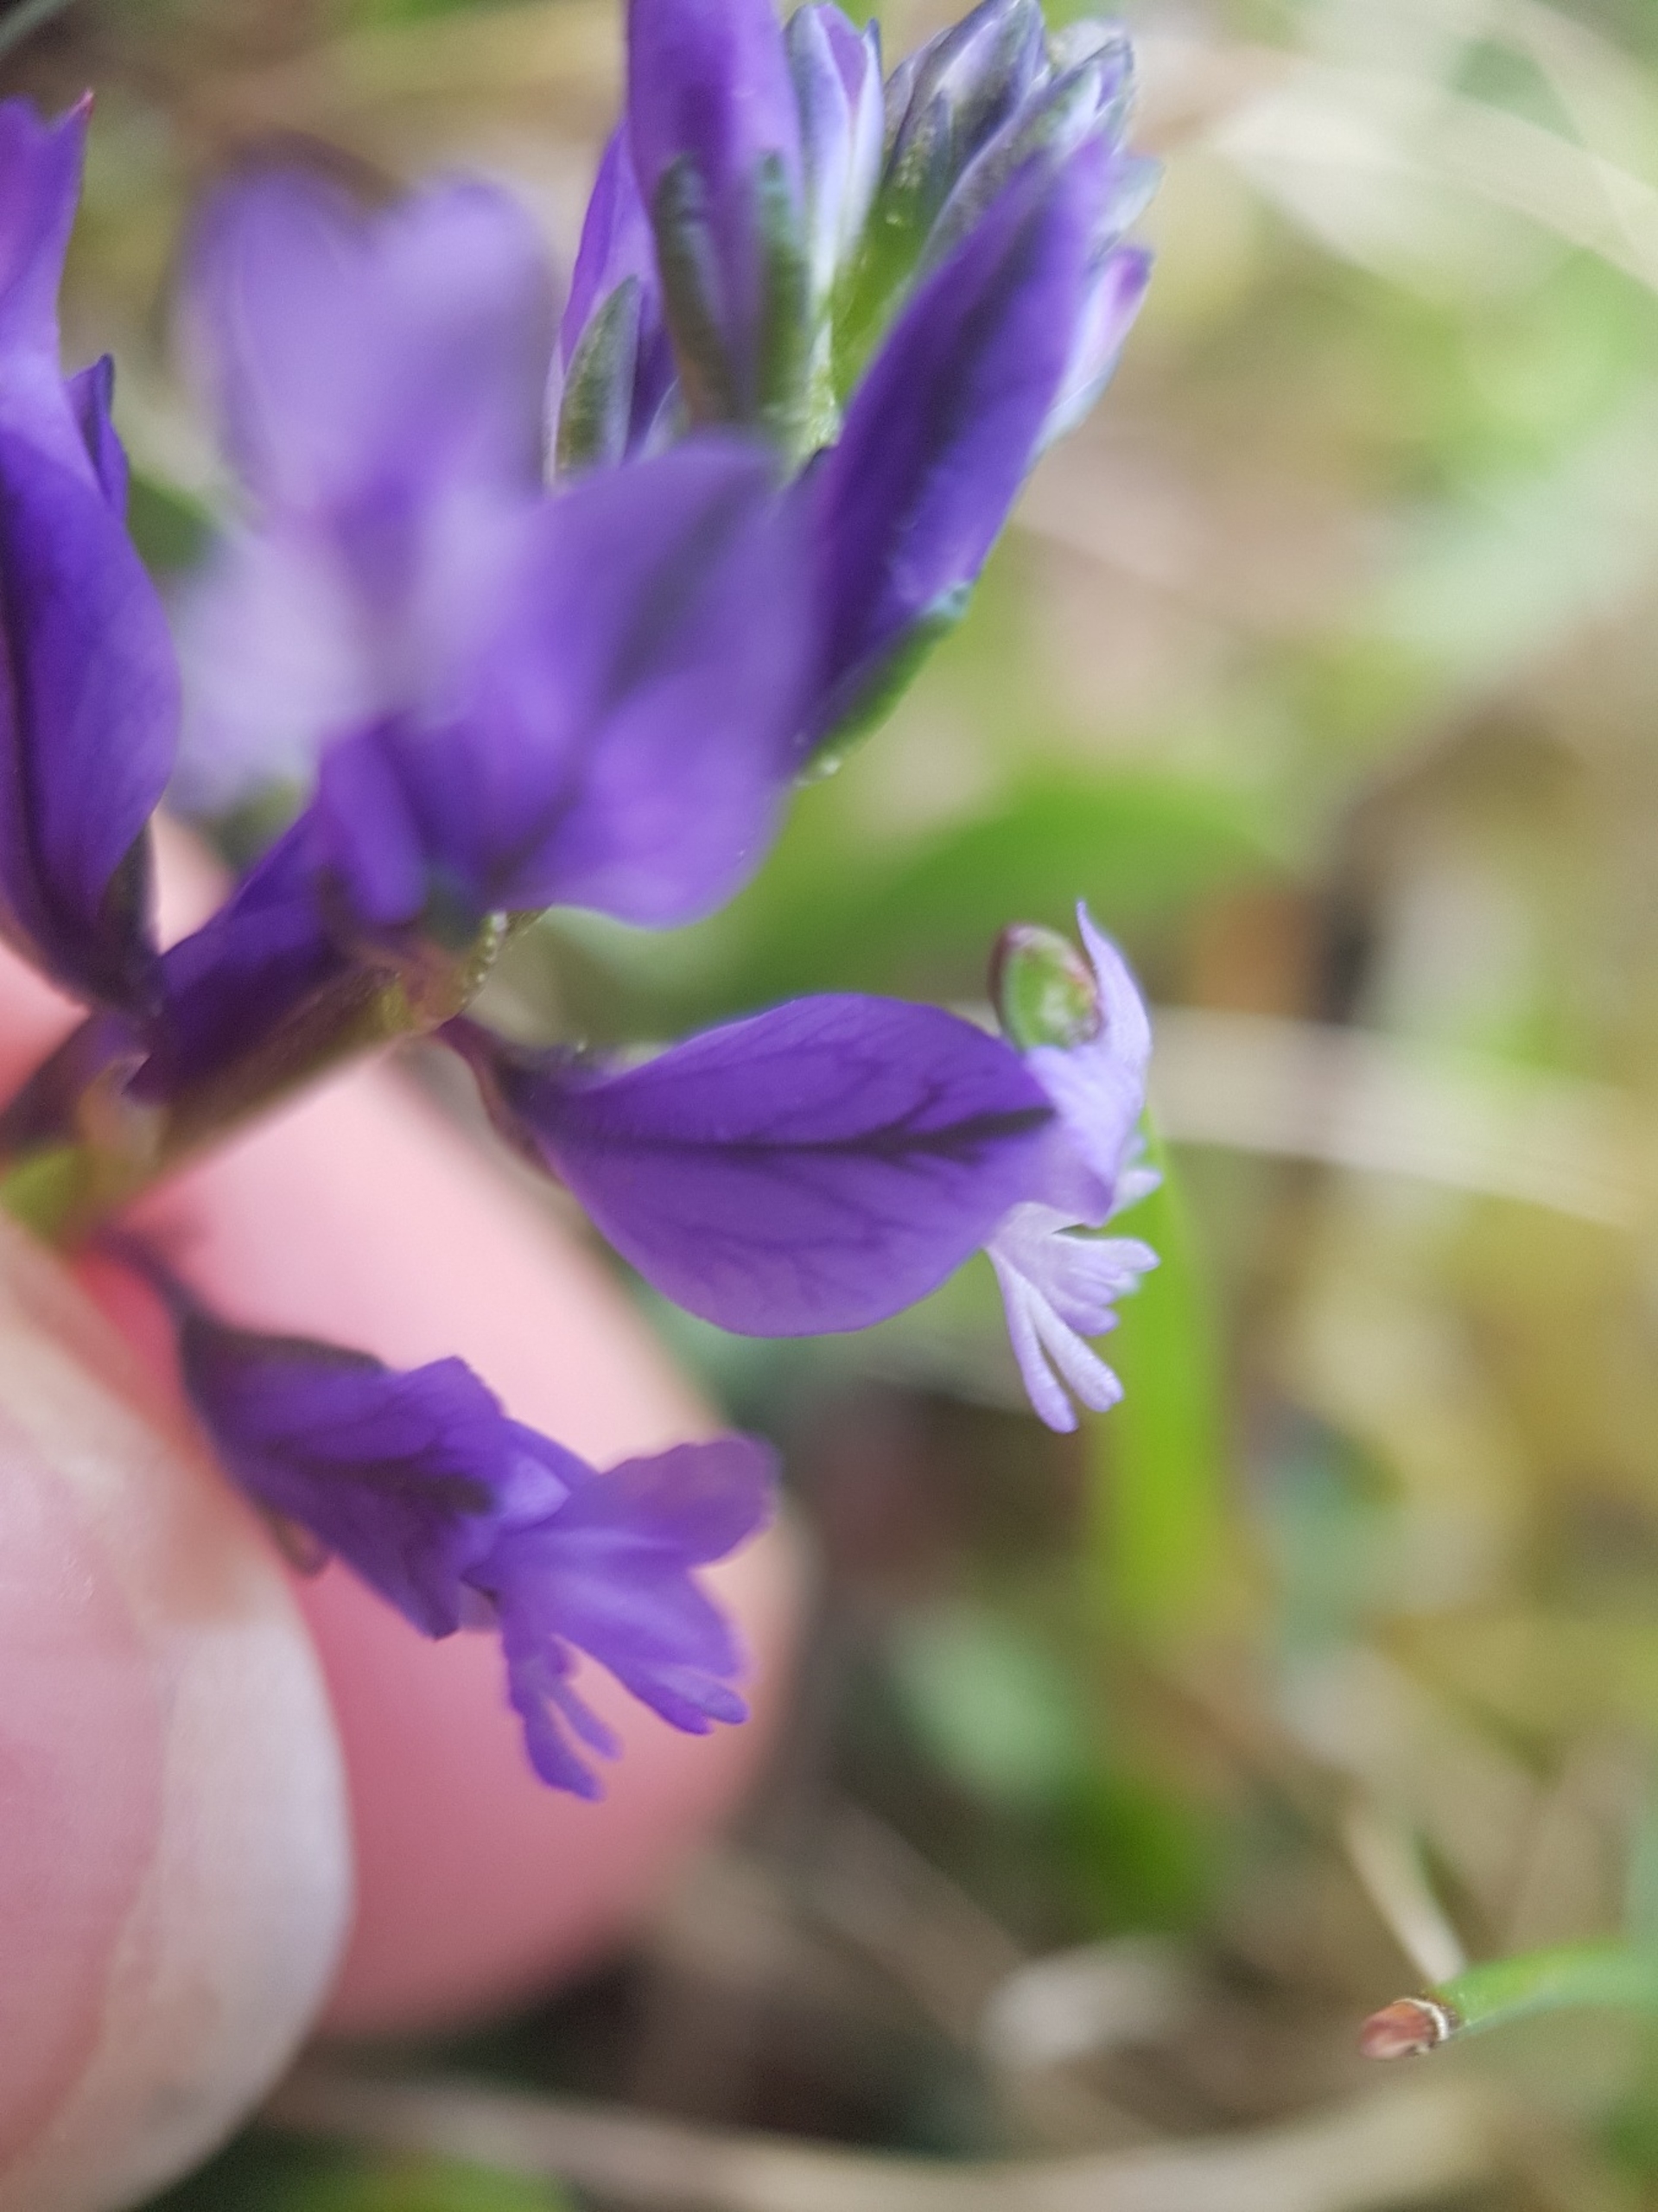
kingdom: Plantae
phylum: Tracheophyta
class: Magnoliopsida
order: Fabales
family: Polygalaceae
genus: Polygala
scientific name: Polygala vulgaris
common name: Almindelig mælkeurt
